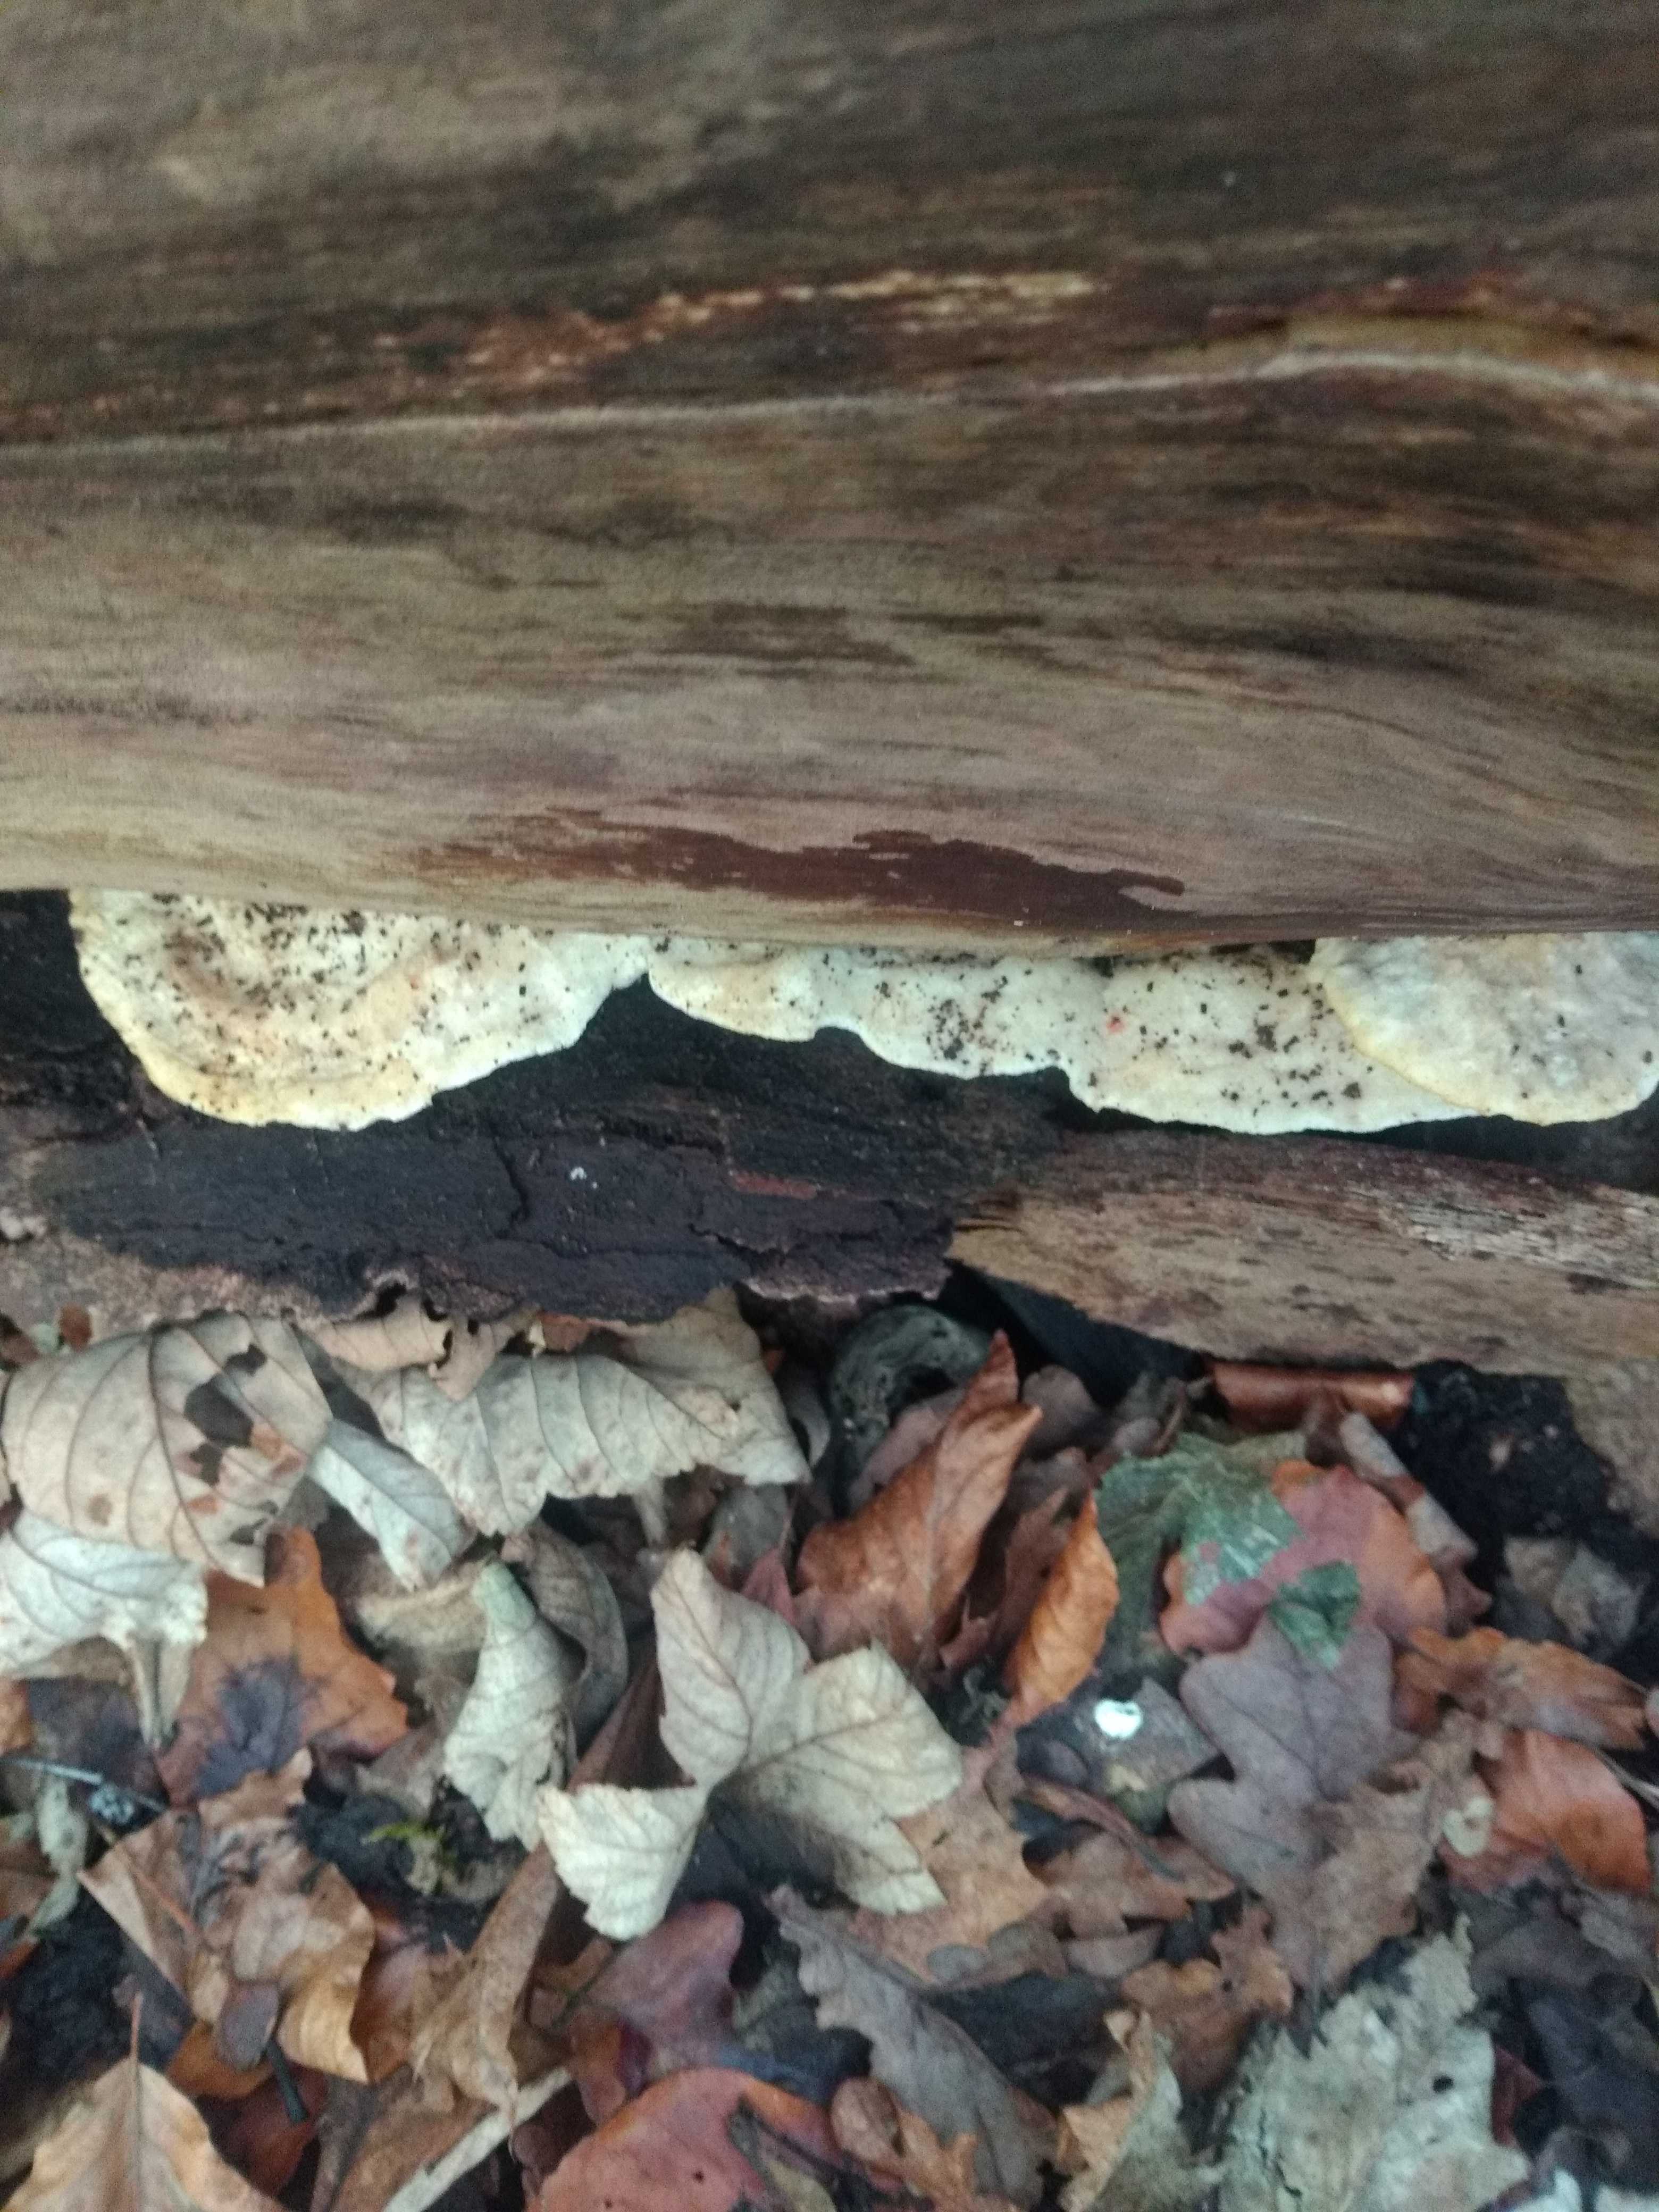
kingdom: Fungi
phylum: Basidiomycota
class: Agaricomycetes
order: Polyporales
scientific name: Polyporales
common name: poresvampordenen
